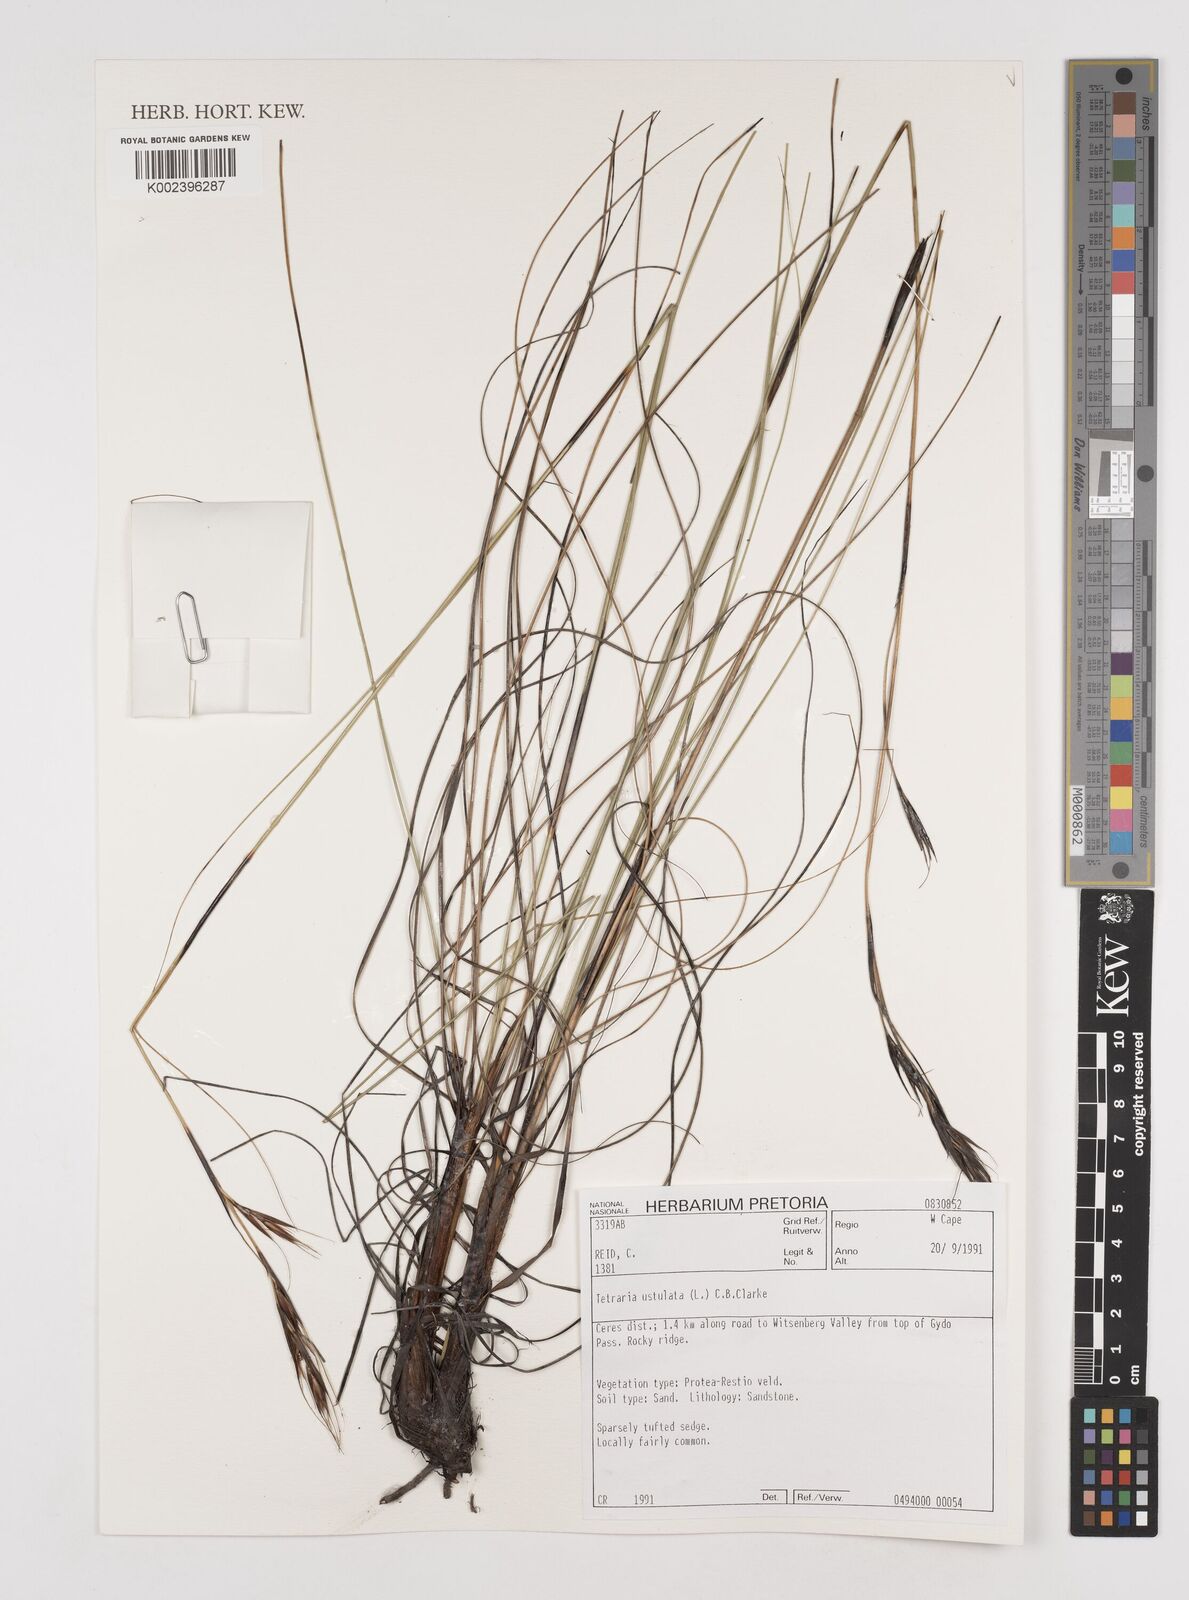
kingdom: Plantae
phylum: Tracheophyta
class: Liliopsida
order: Poales
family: Cyperaceae
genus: Tetraria
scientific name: Tetraria ustulata
